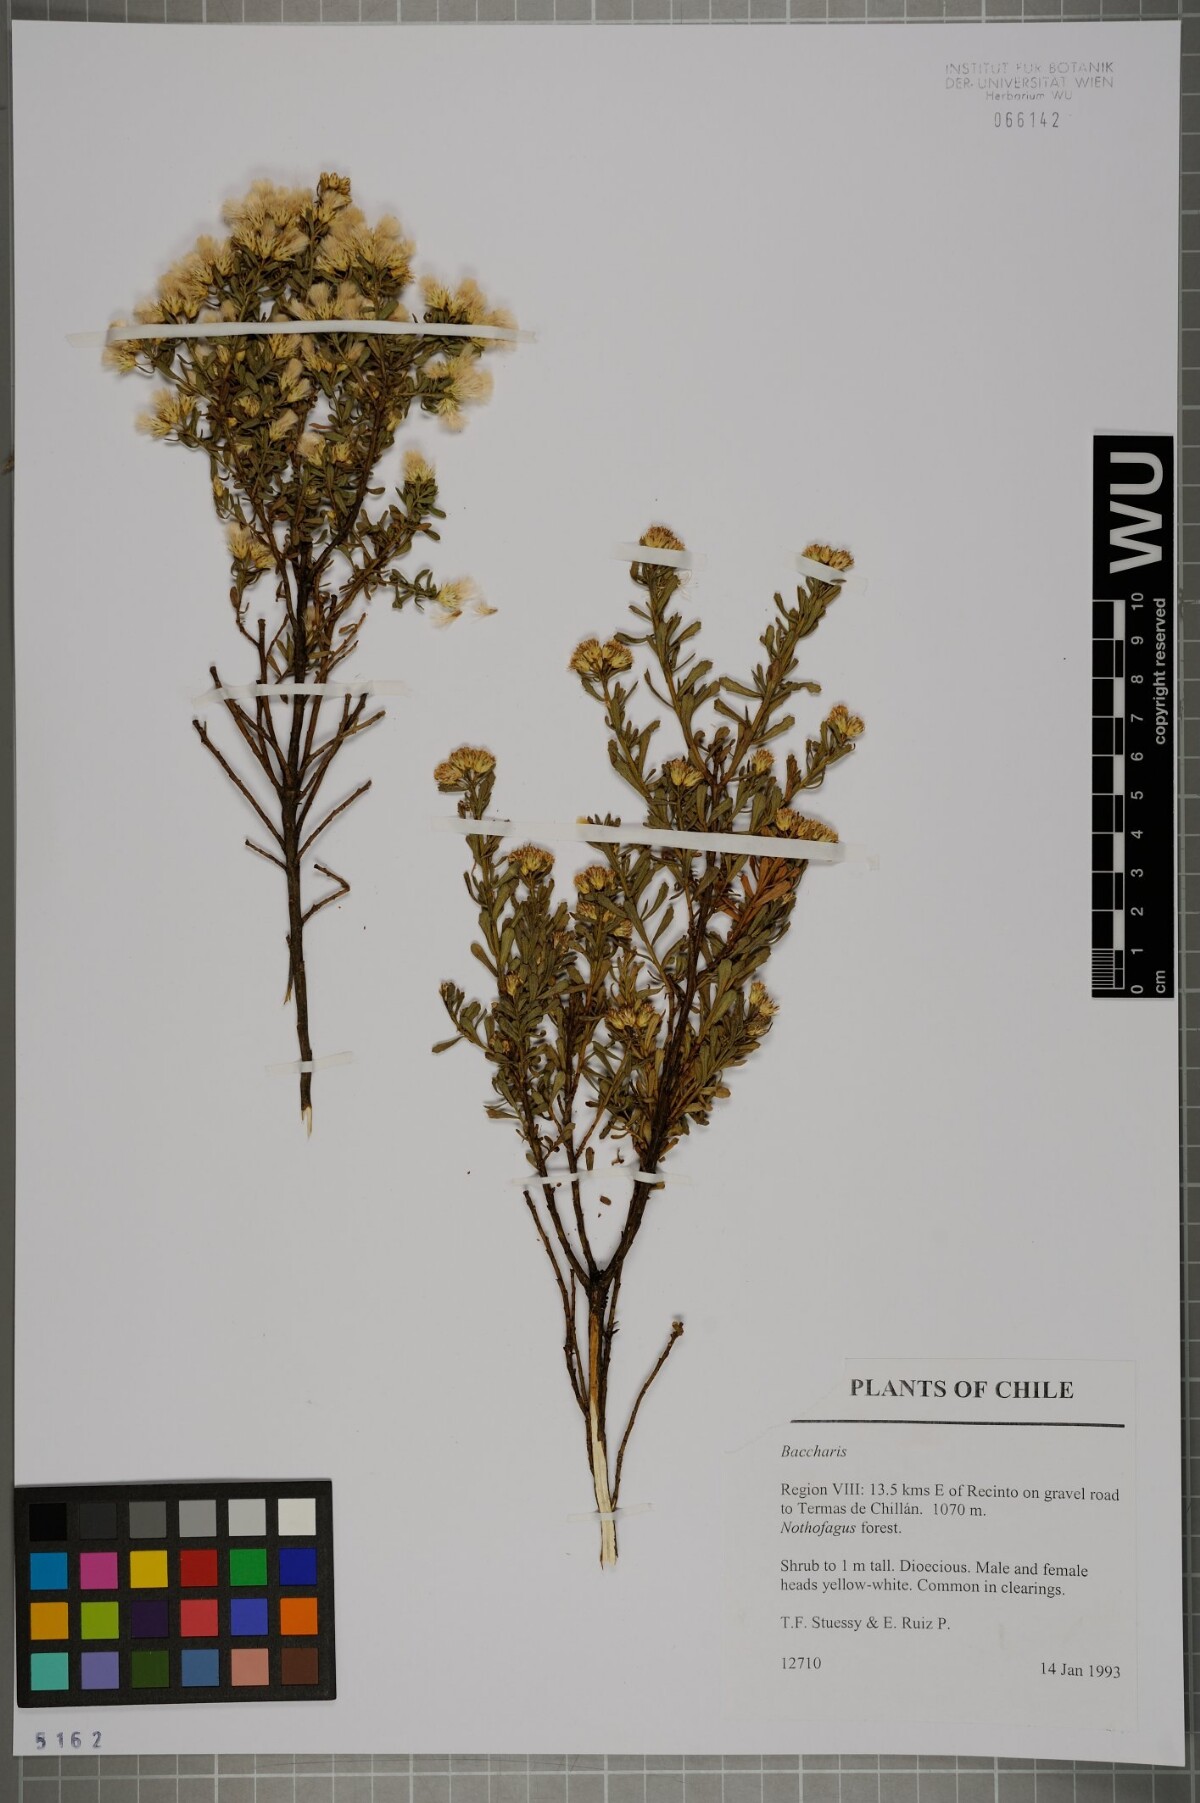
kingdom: Plantae
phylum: Tracheophyta
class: Magnoliopsida
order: Asterales
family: Asteraceae
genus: Baccharis
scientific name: Baccharis lycioides
